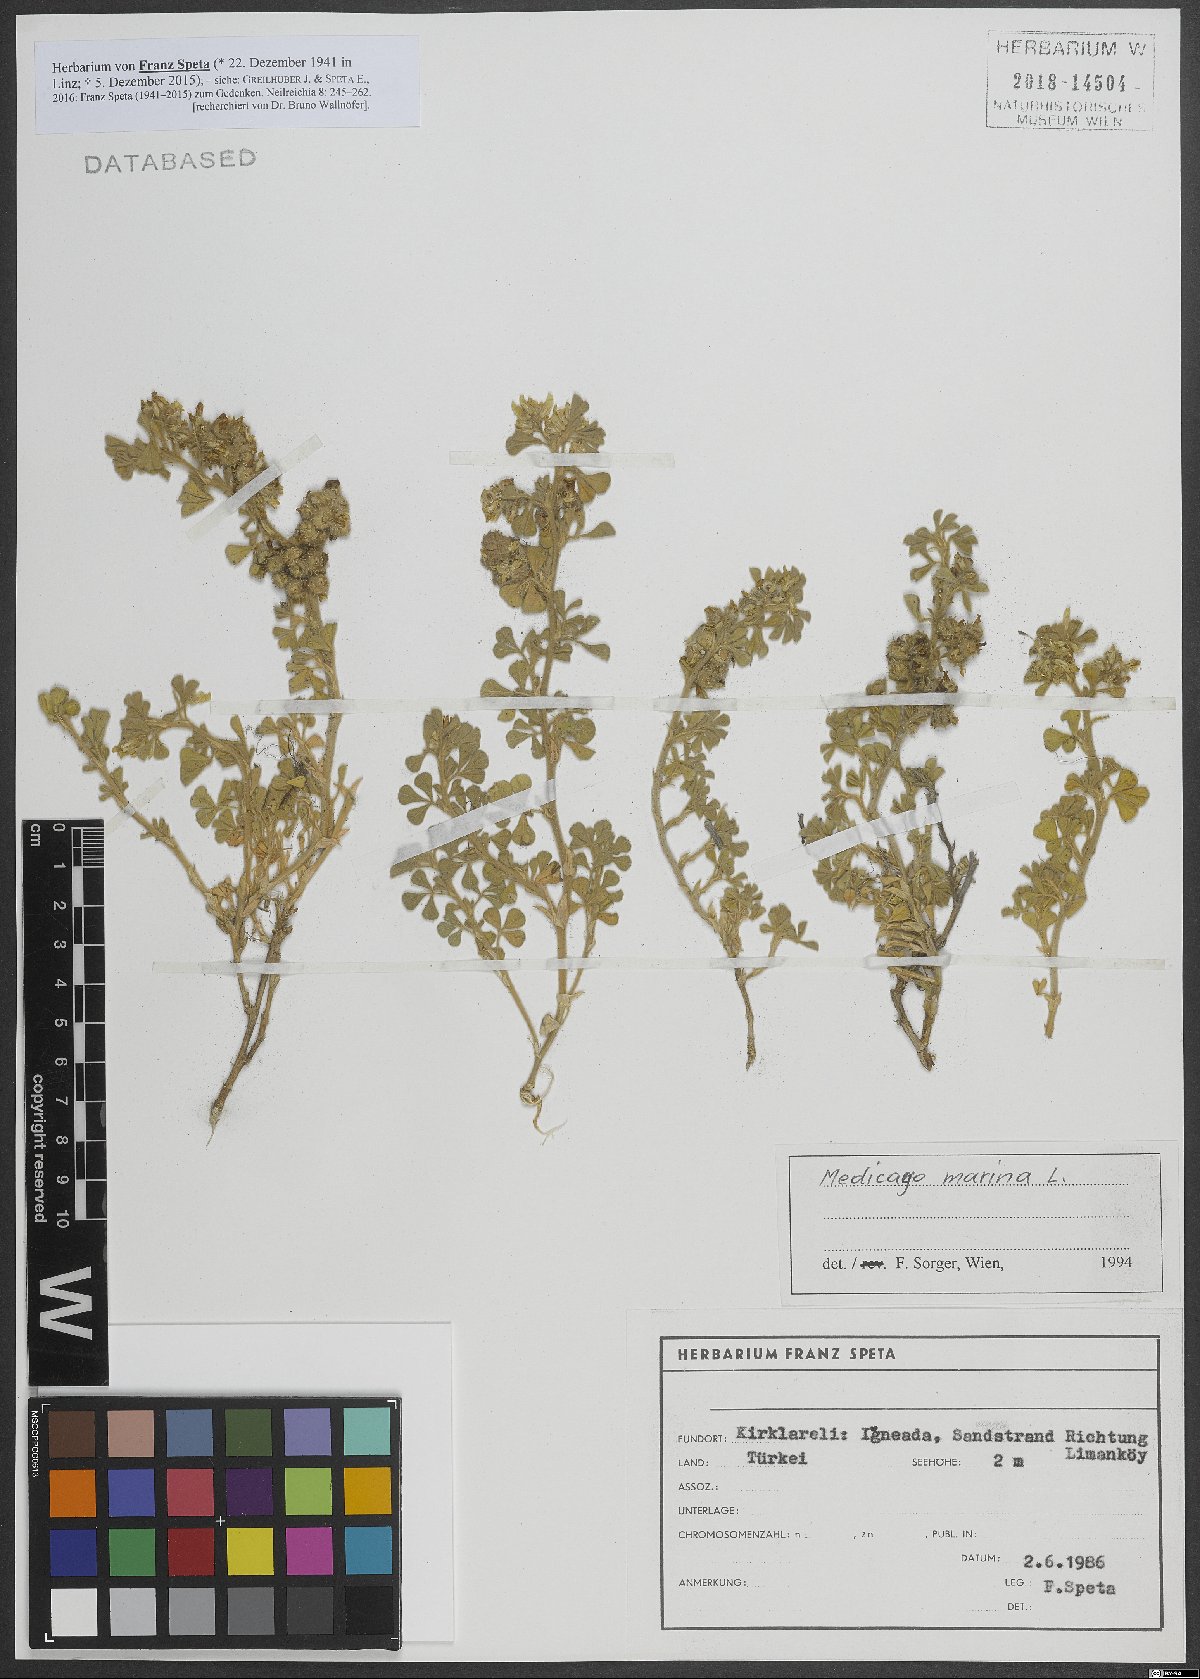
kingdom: Plantae
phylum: Tracheophyta
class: Magnoliopsida
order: Fabales
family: Fabaceae
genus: Medicago
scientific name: Medicago marina
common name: Sea medick
